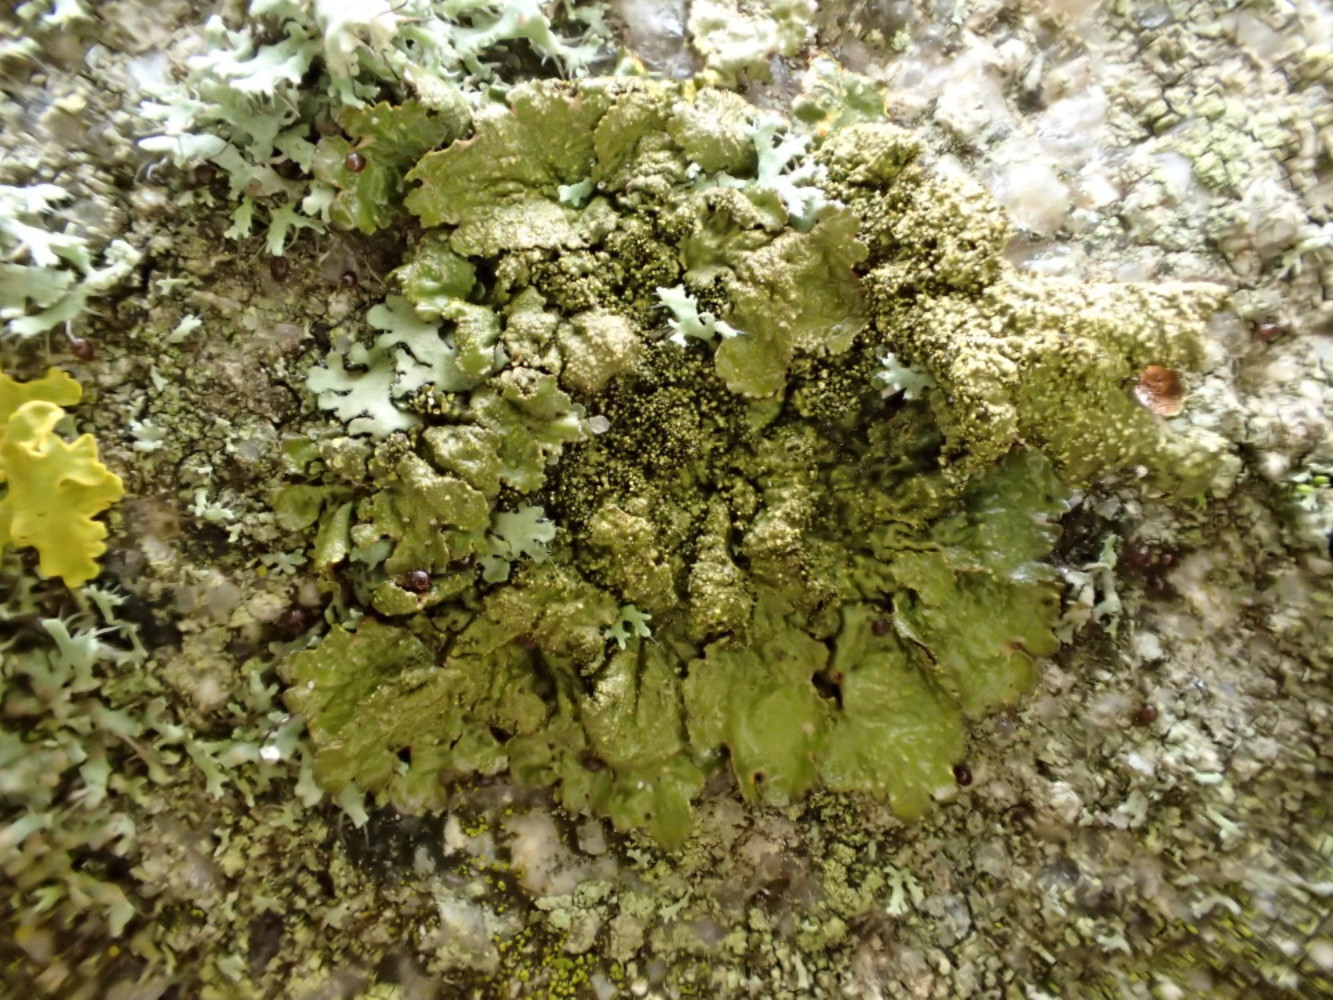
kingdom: Fungi
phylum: Ascomycota
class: Lecanoromycetes
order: Lecanorales
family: Parmeliaceae
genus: Melanelixia
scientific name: Melanelixia subaurifera
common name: guldpudret skållav
